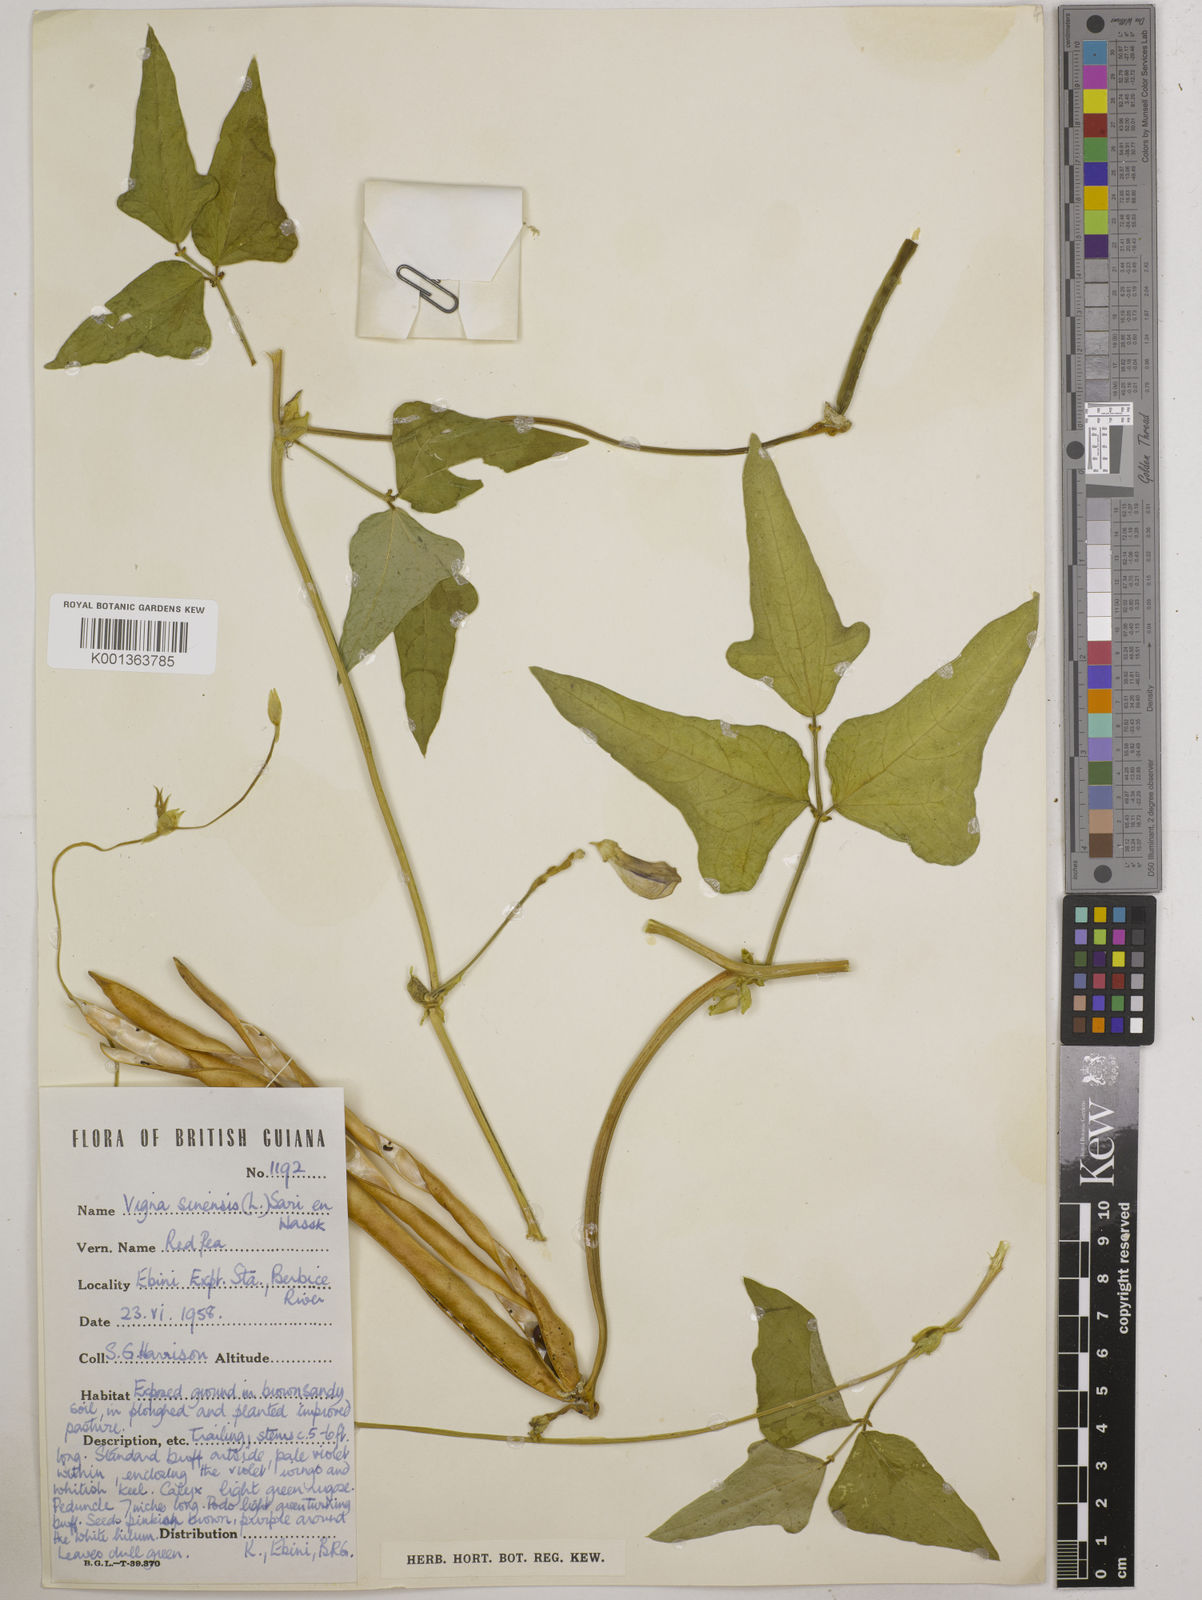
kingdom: Plantae
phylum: Tracheophyta
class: Magnoliopsida
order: Fabales
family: Fabaceae
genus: Vigna
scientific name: Vigna unguiculata
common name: Cowpea
